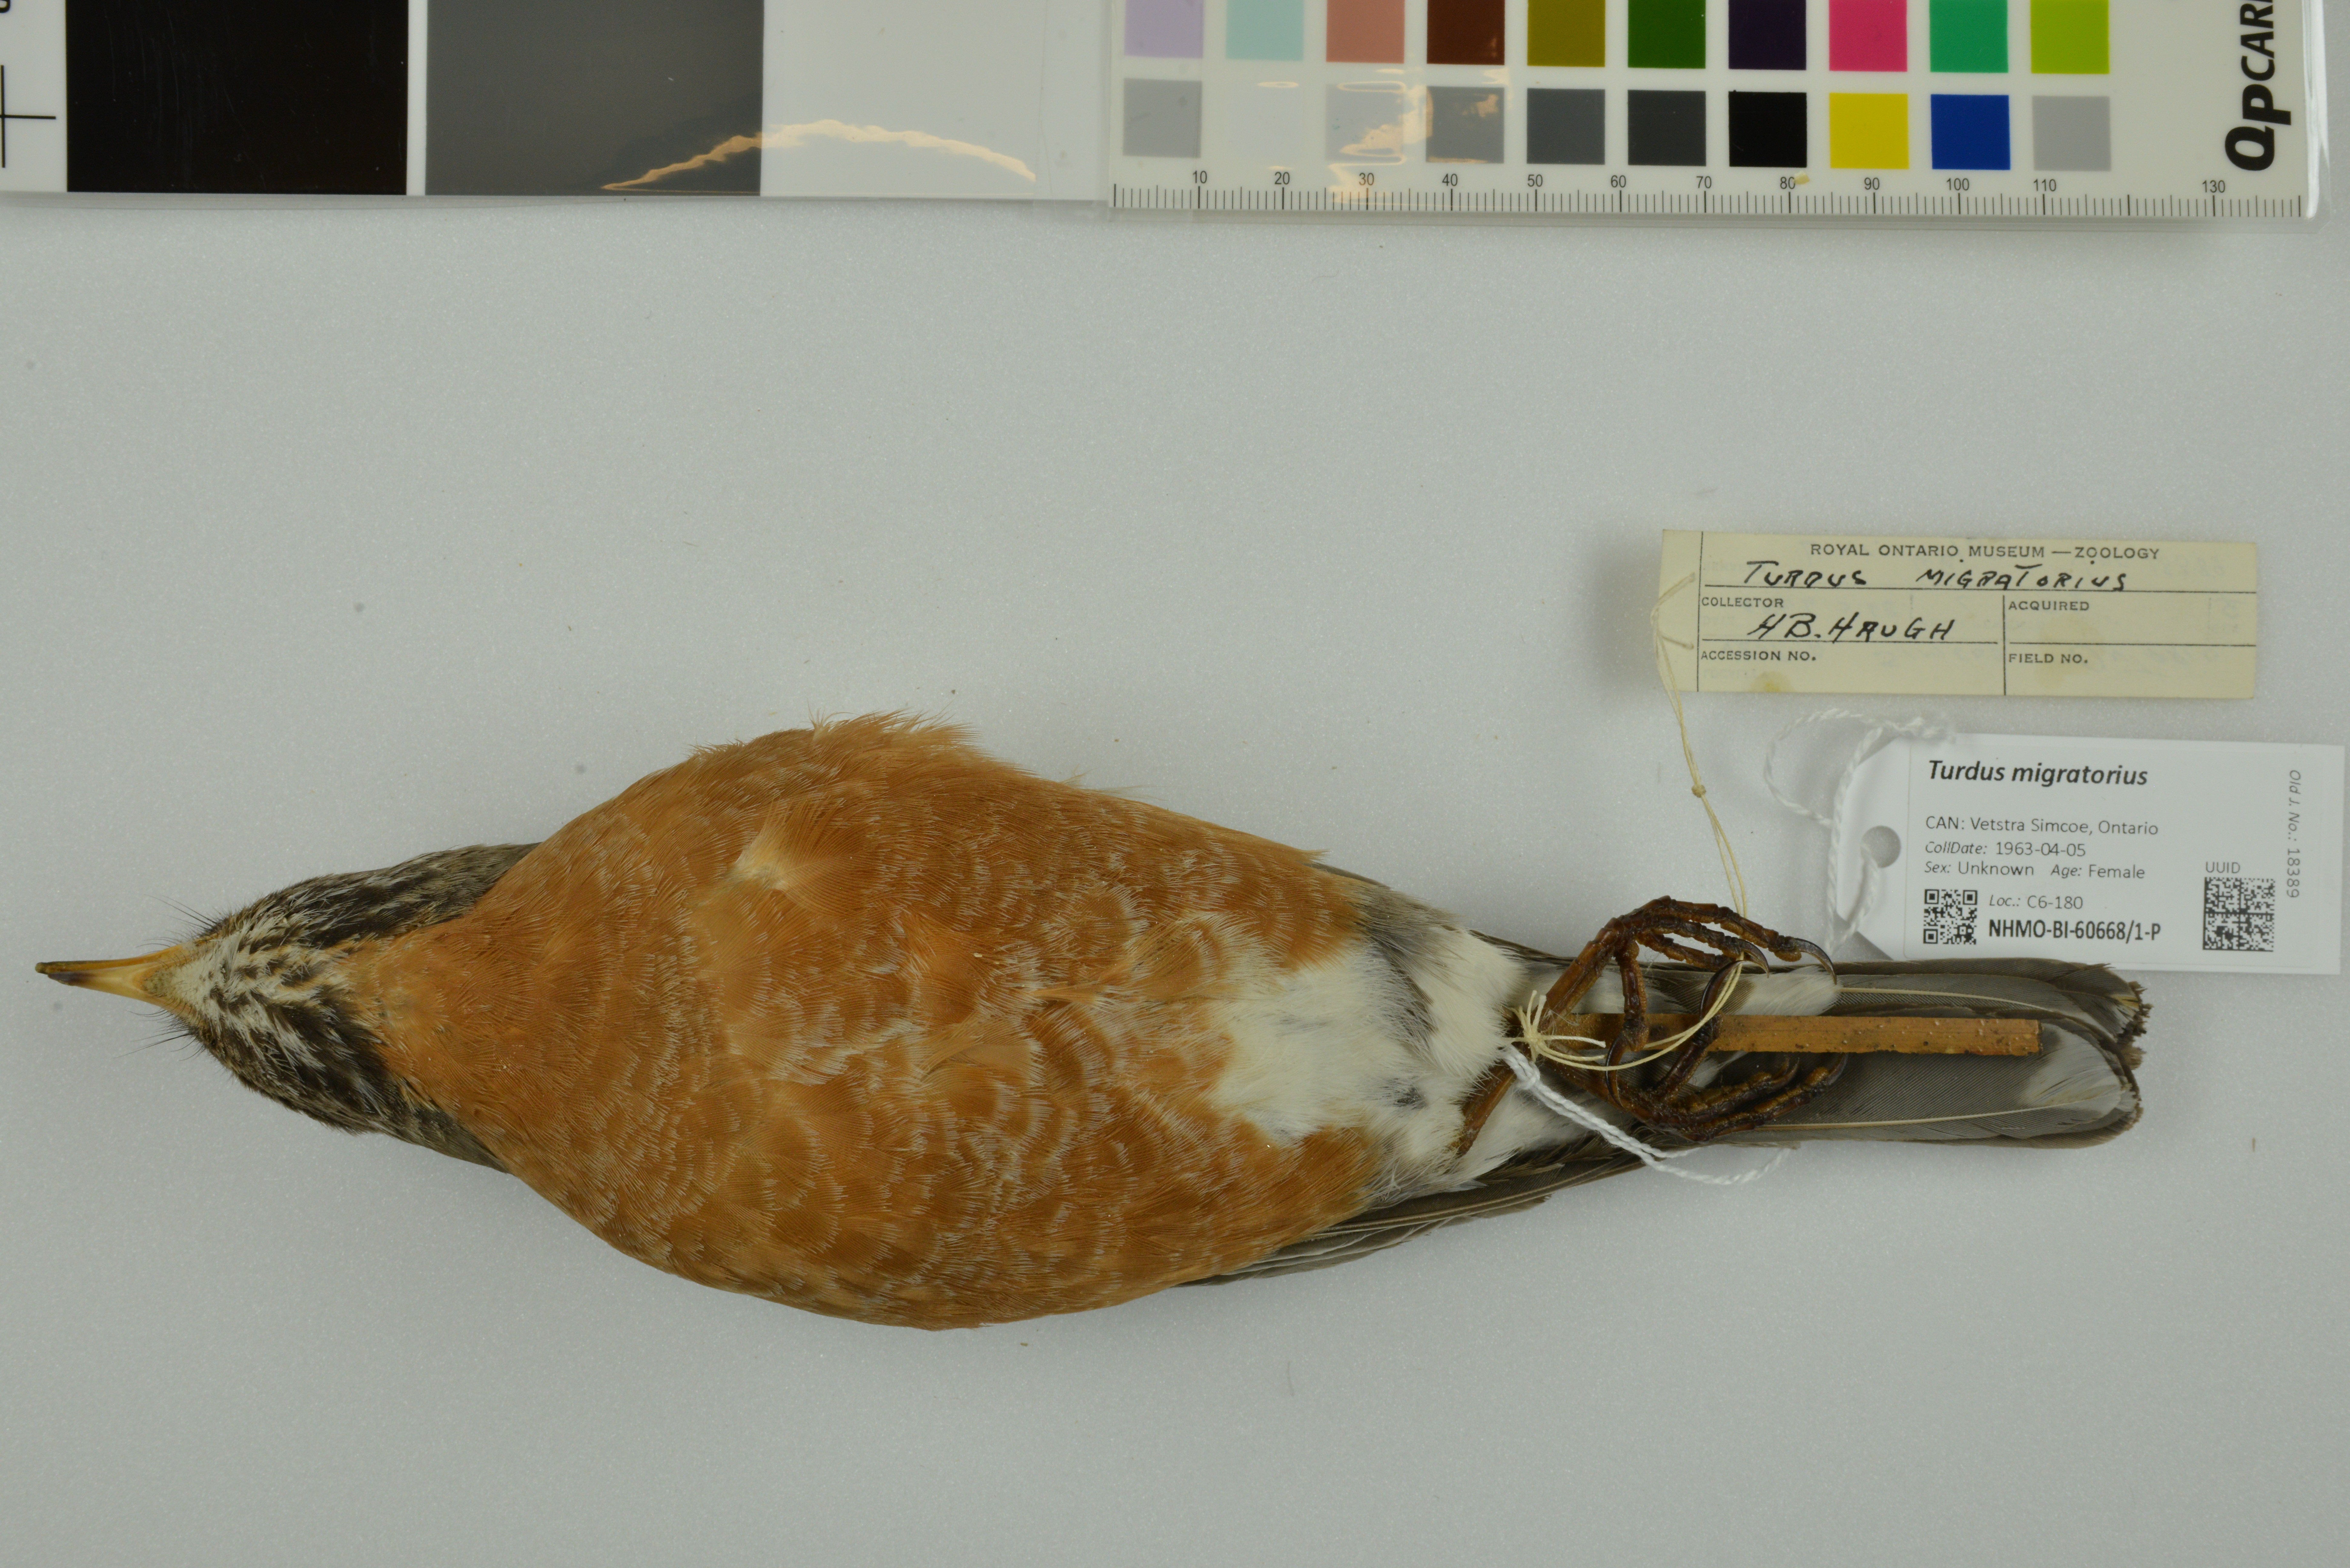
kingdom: Animalia
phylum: Chordata
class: Aves
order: Passeriformes
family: Turdidae
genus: Turdus
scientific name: Turdus migratorius
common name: American robin
